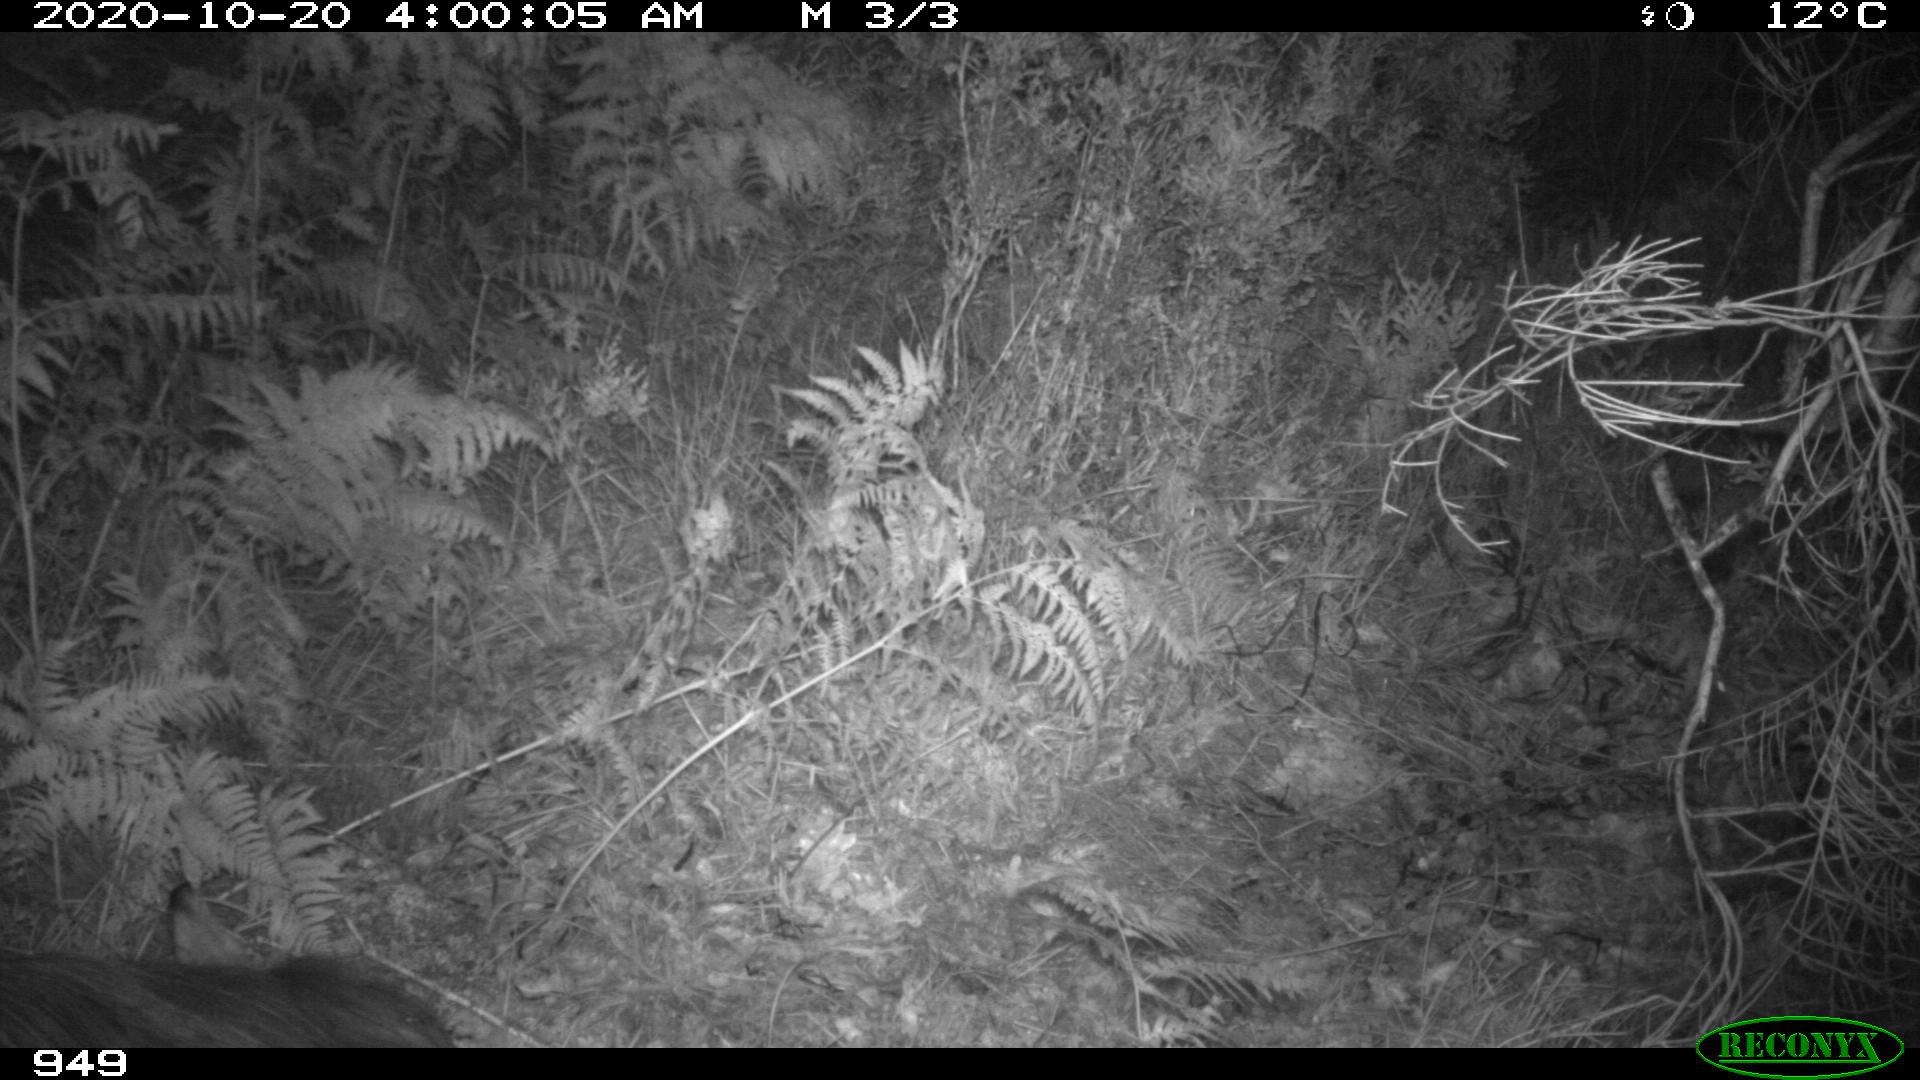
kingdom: Animalia
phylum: Chordata
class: Mammalia
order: Perissodactyla
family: Equidae
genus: Equus
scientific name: Equus caballus
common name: Horse
